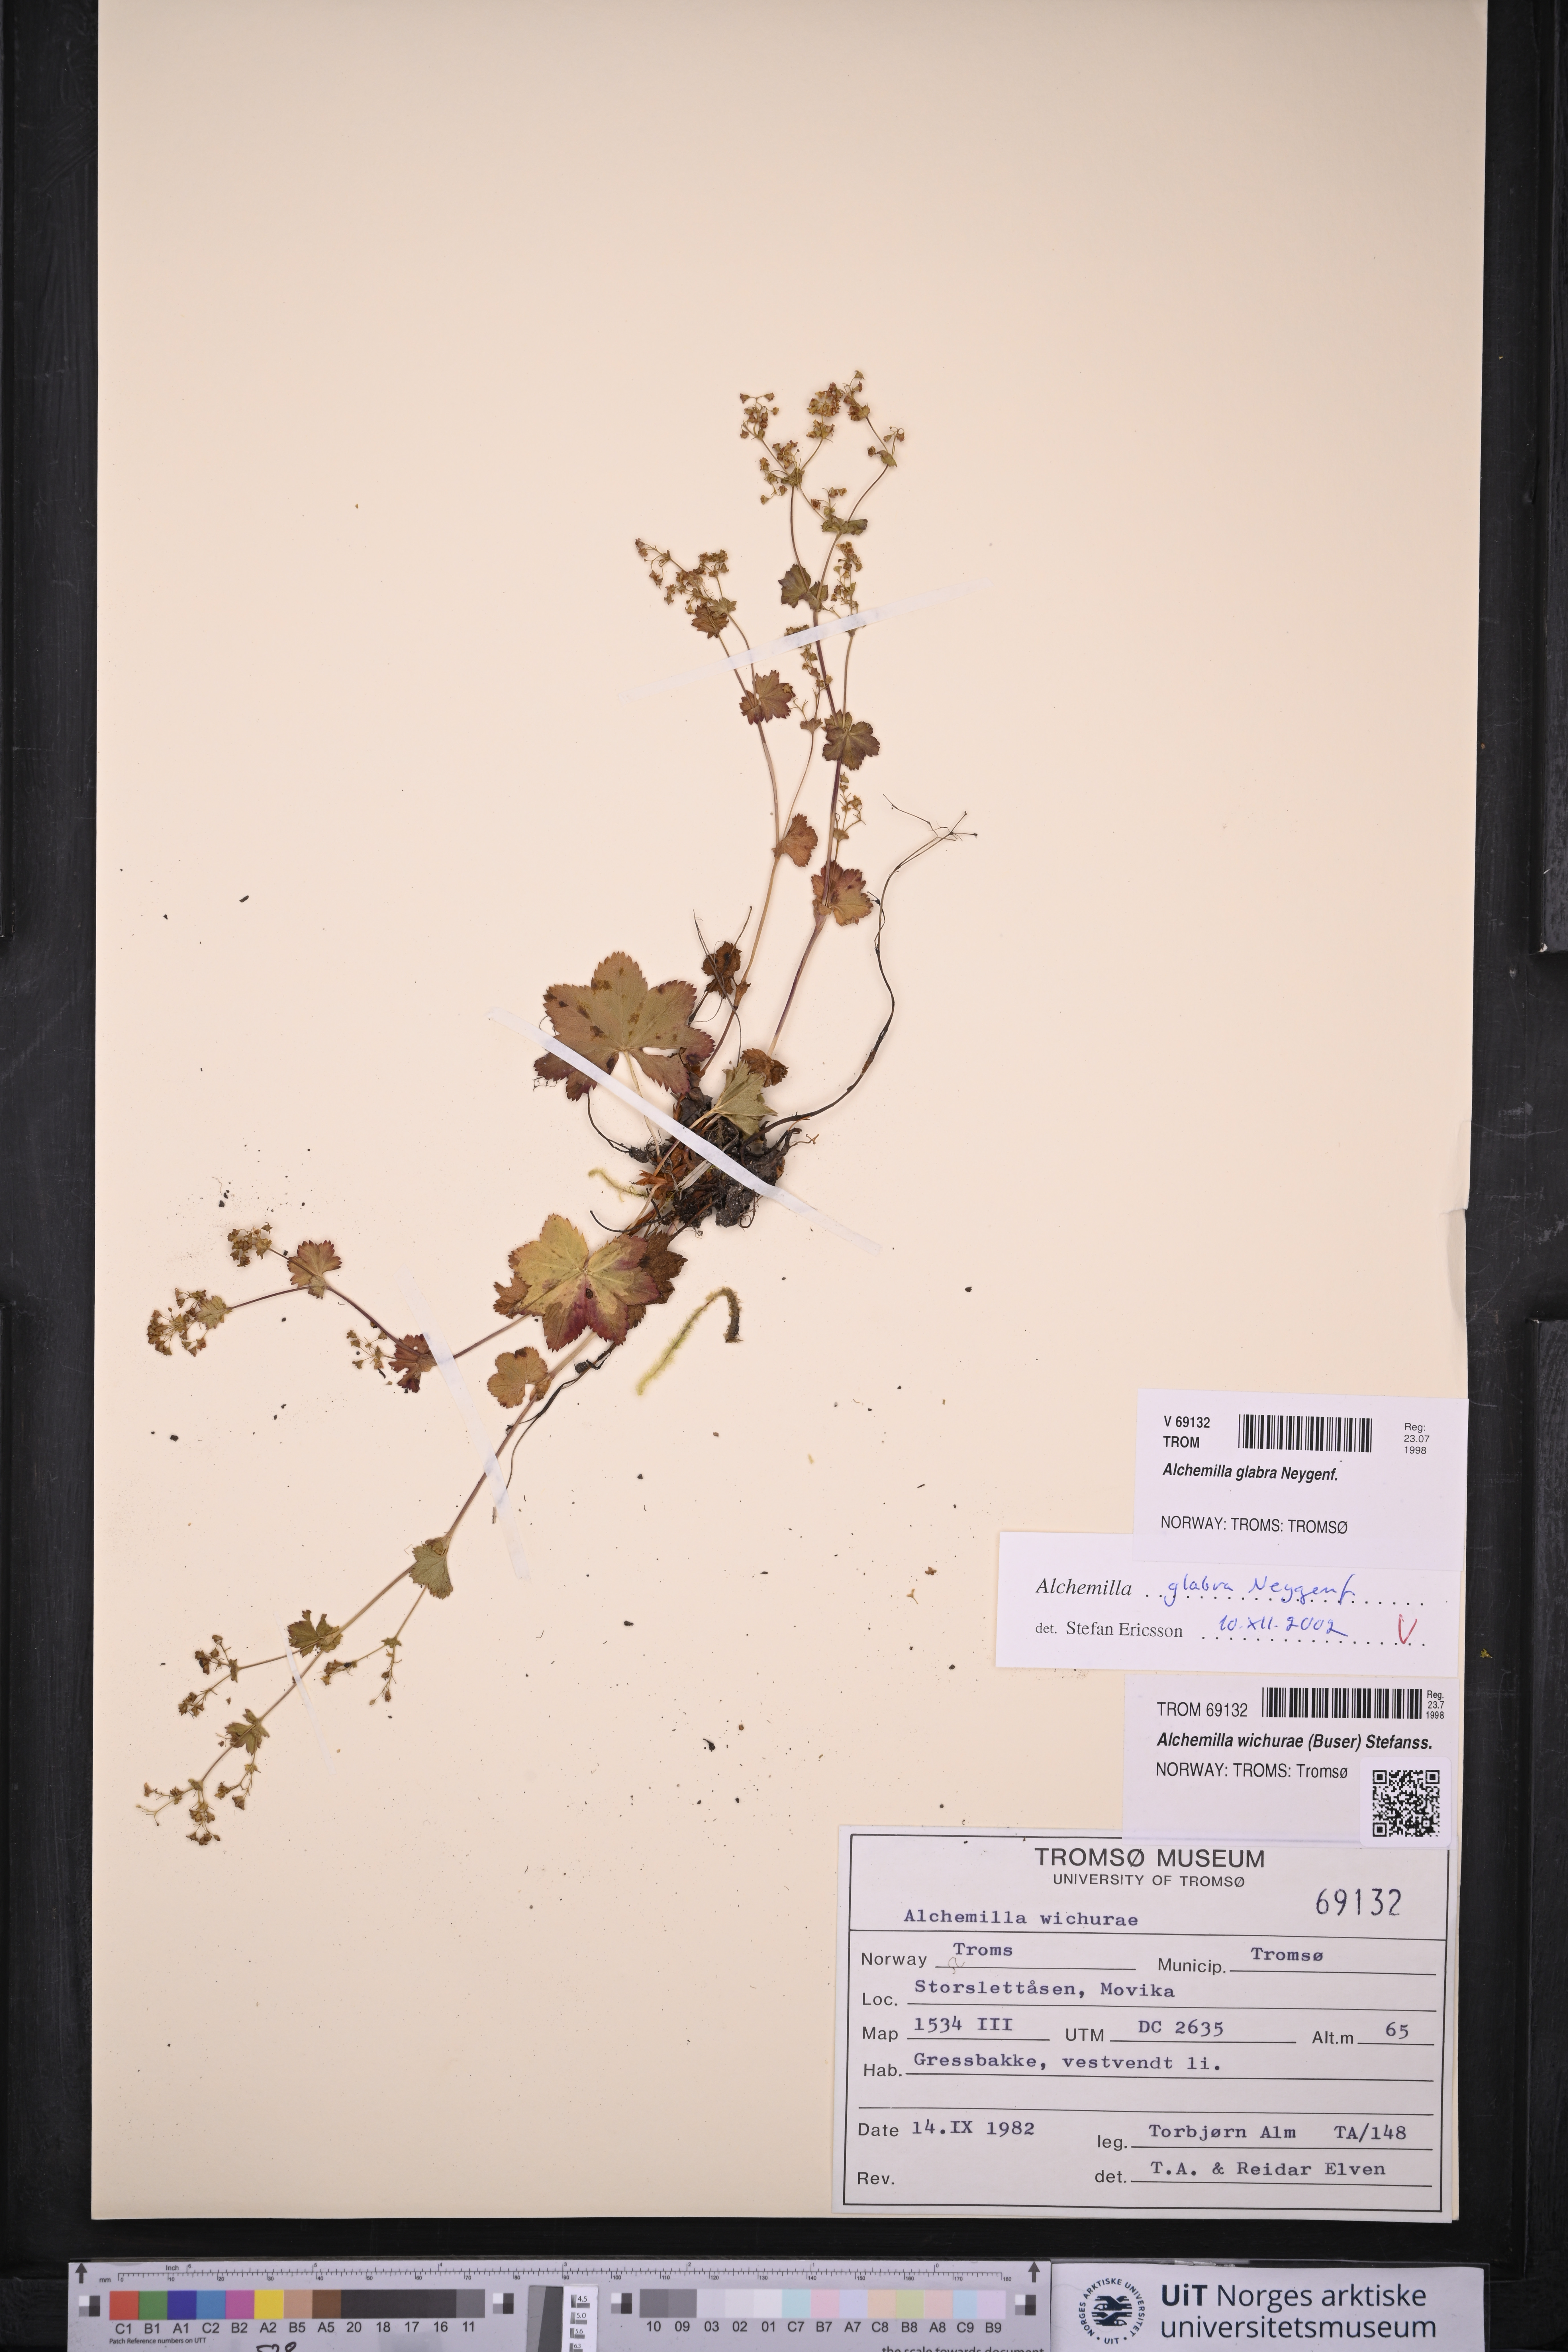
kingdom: Plantae
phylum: Tracheophyta
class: Magnoliopsida
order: Rosales
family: Rosaceae
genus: Alchemilla
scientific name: Alchemilla glabra
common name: Smooth lady's-mantle
